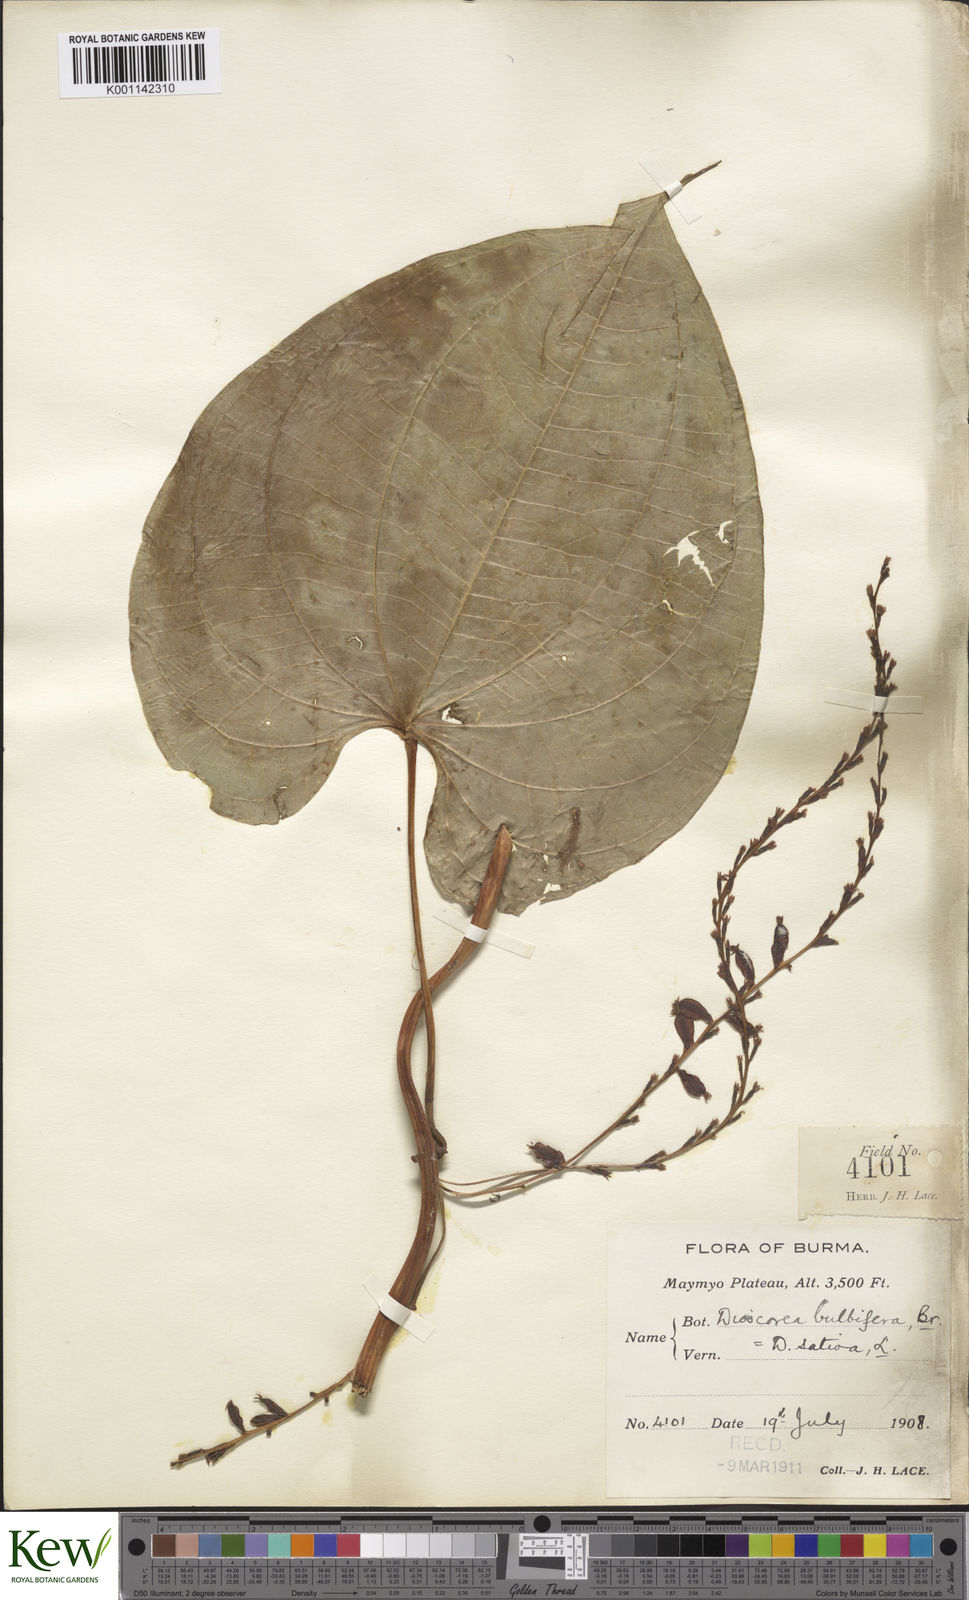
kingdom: Plantae
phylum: Tracheophyta
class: Liliopsida
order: Dioscoreales
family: Dioscoreaceae
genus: Dioscorea
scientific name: Dioscorea bulbifera
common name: Air yam
